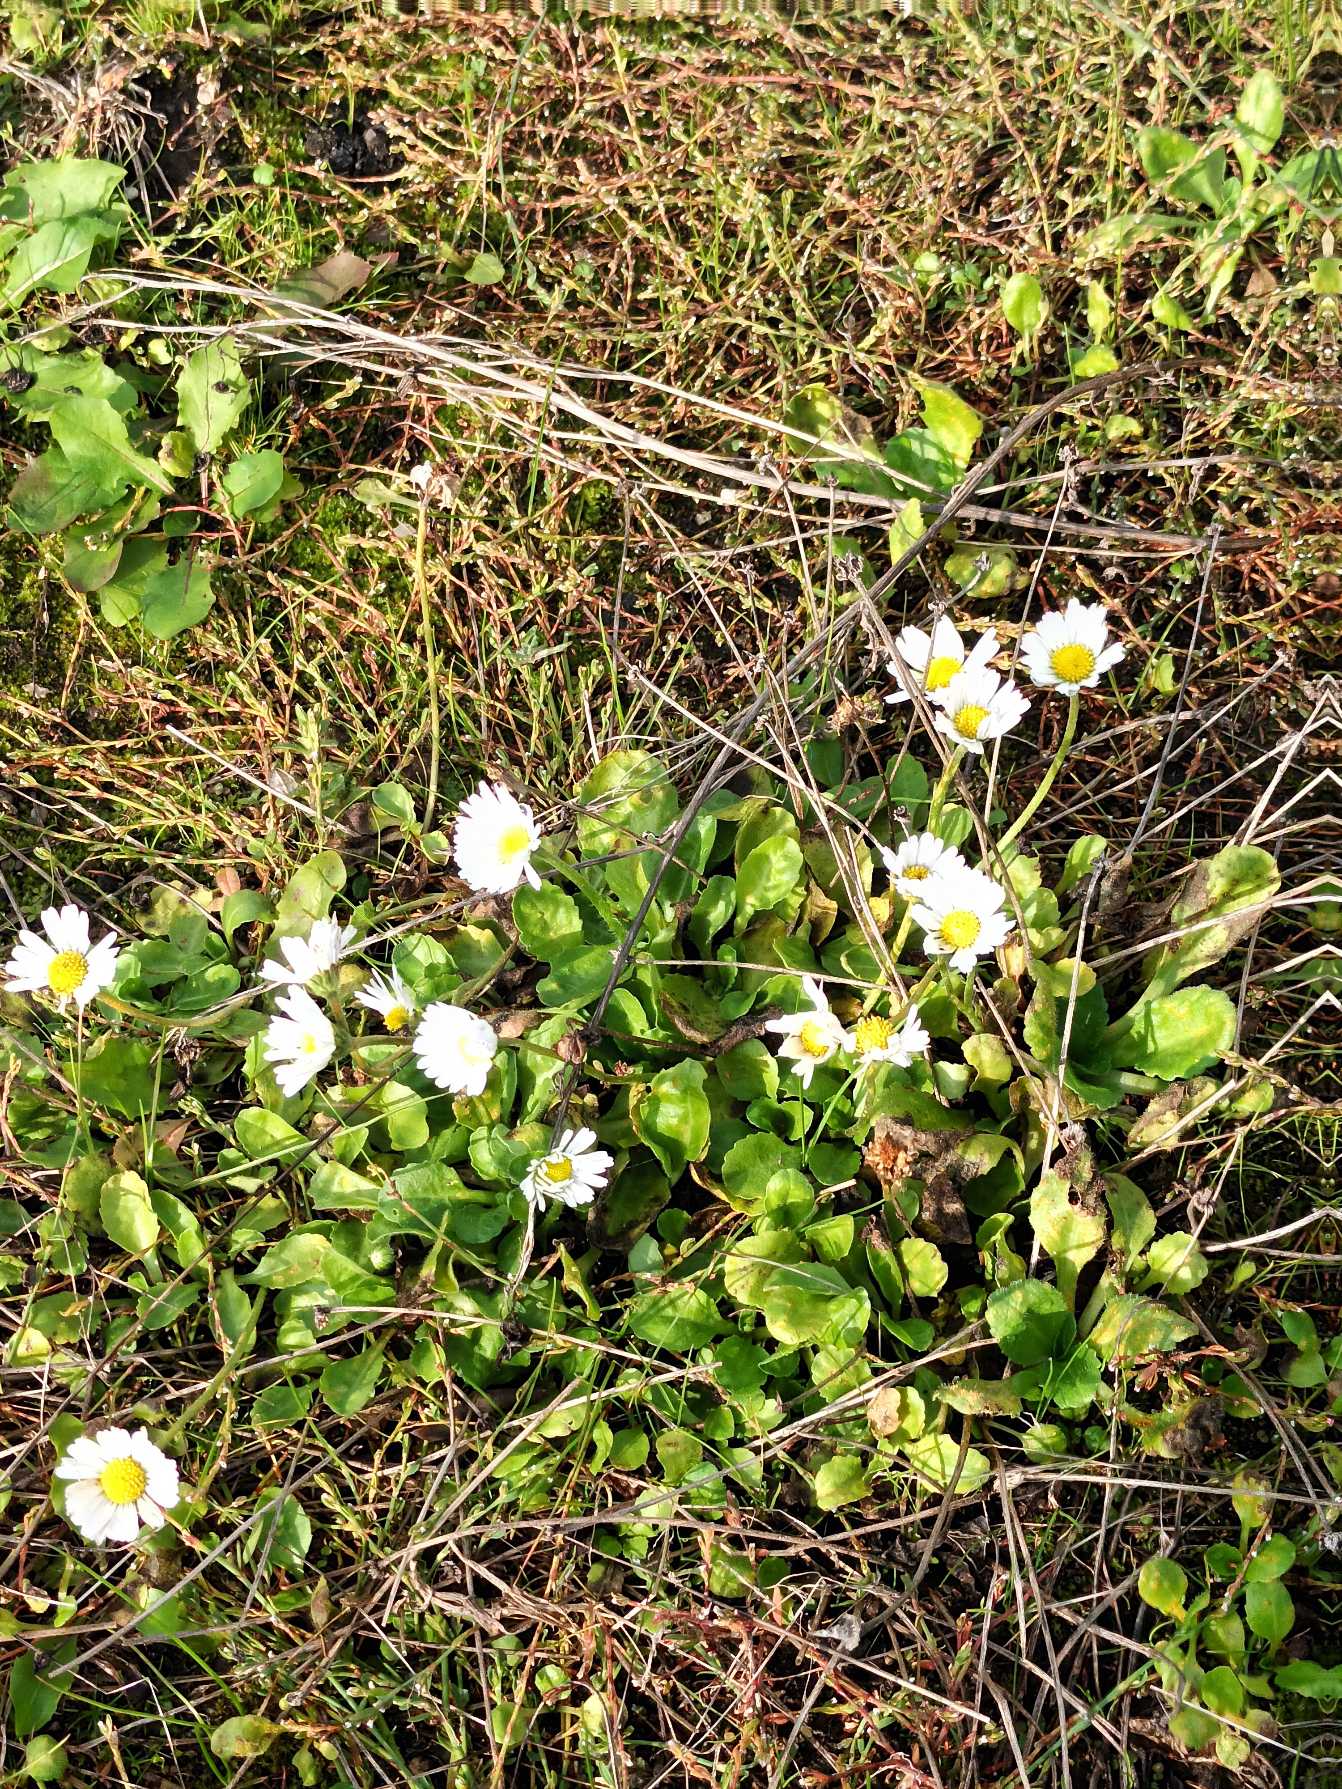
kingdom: Plantae
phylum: Tracheophyta
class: Magnoliopsida
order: Asterales
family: Asteraceae
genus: Bellis
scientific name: Bellis perennis
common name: Tusindfryd
